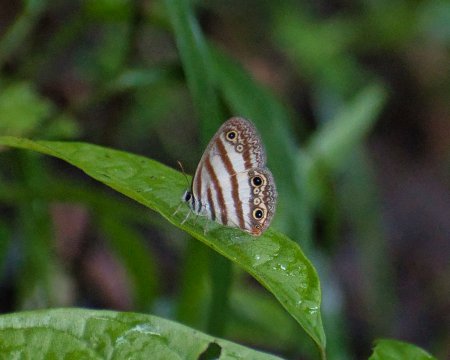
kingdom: Animalia
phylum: Arthropoda
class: Insecta
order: Lepidoptera
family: Nymphalidae
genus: Euptychia
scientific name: Euptychia mollina
